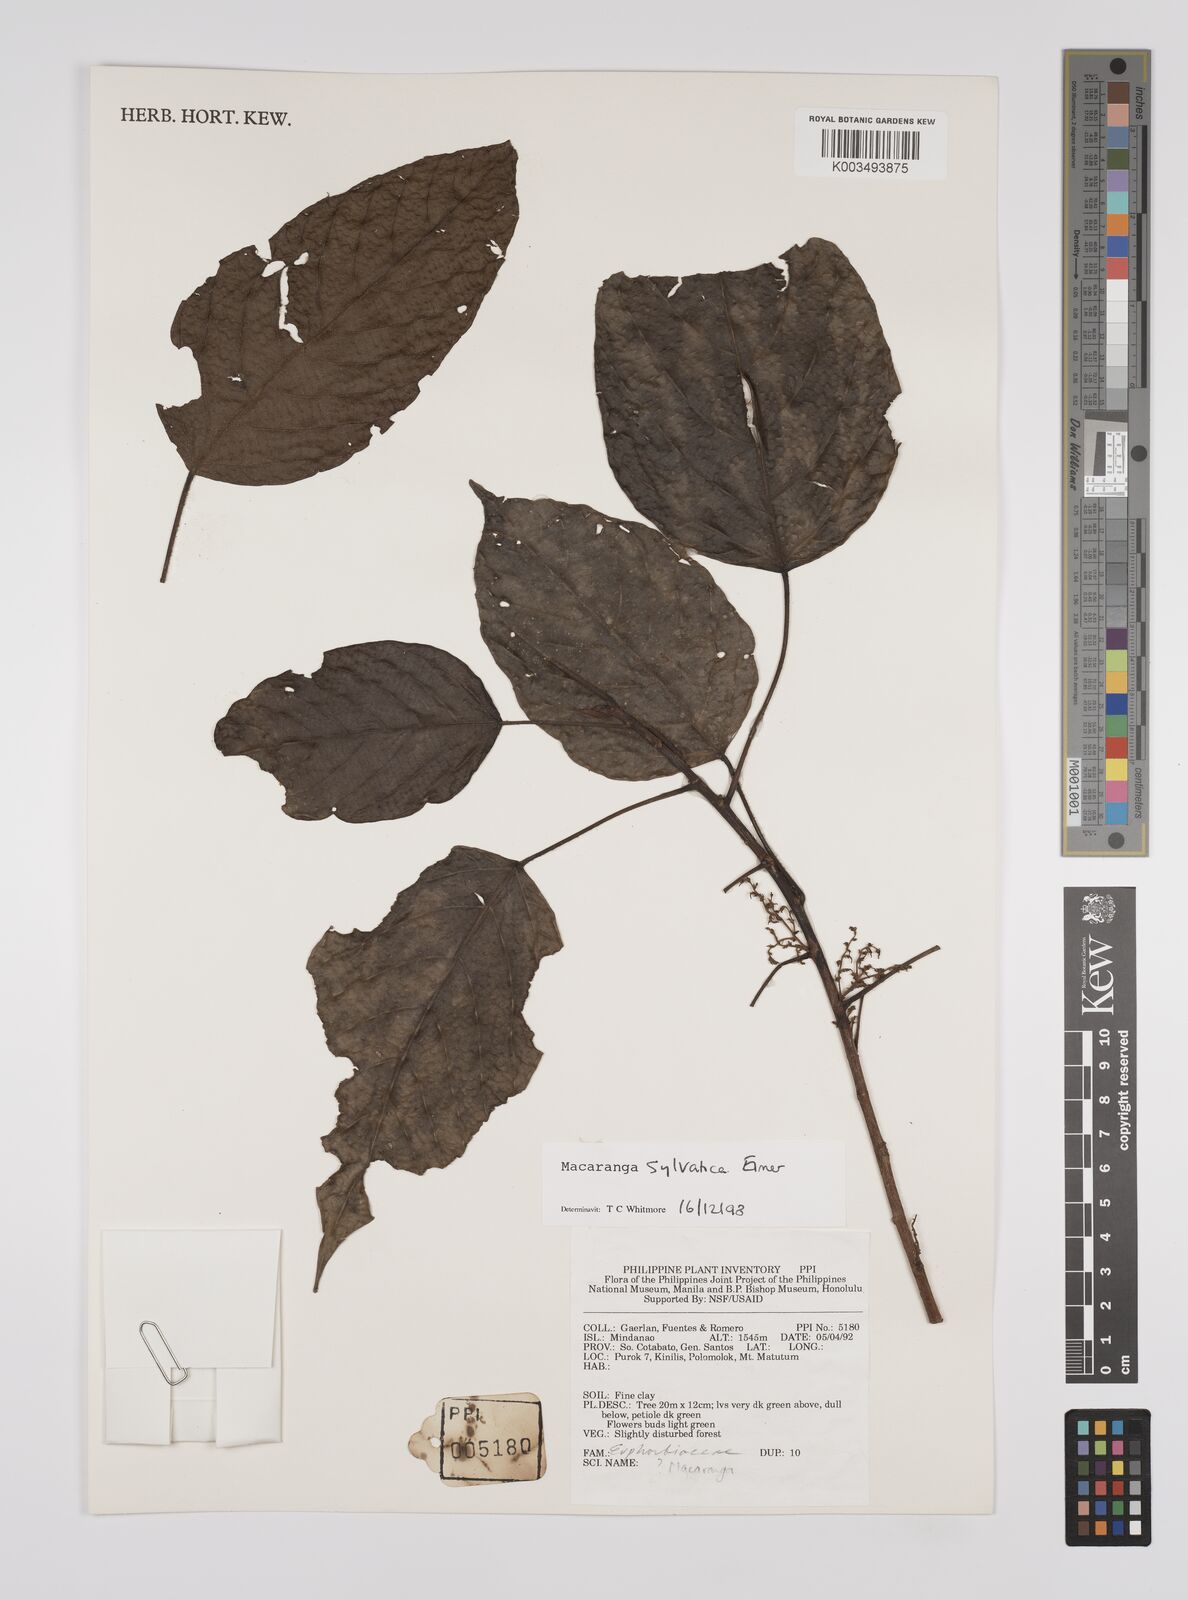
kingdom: Plantae
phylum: Tracheophyta
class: Magnoliopsida
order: Malpighiales
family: Euphorbiaceae
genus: Macaranga
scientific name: Macaranga sylvatica
